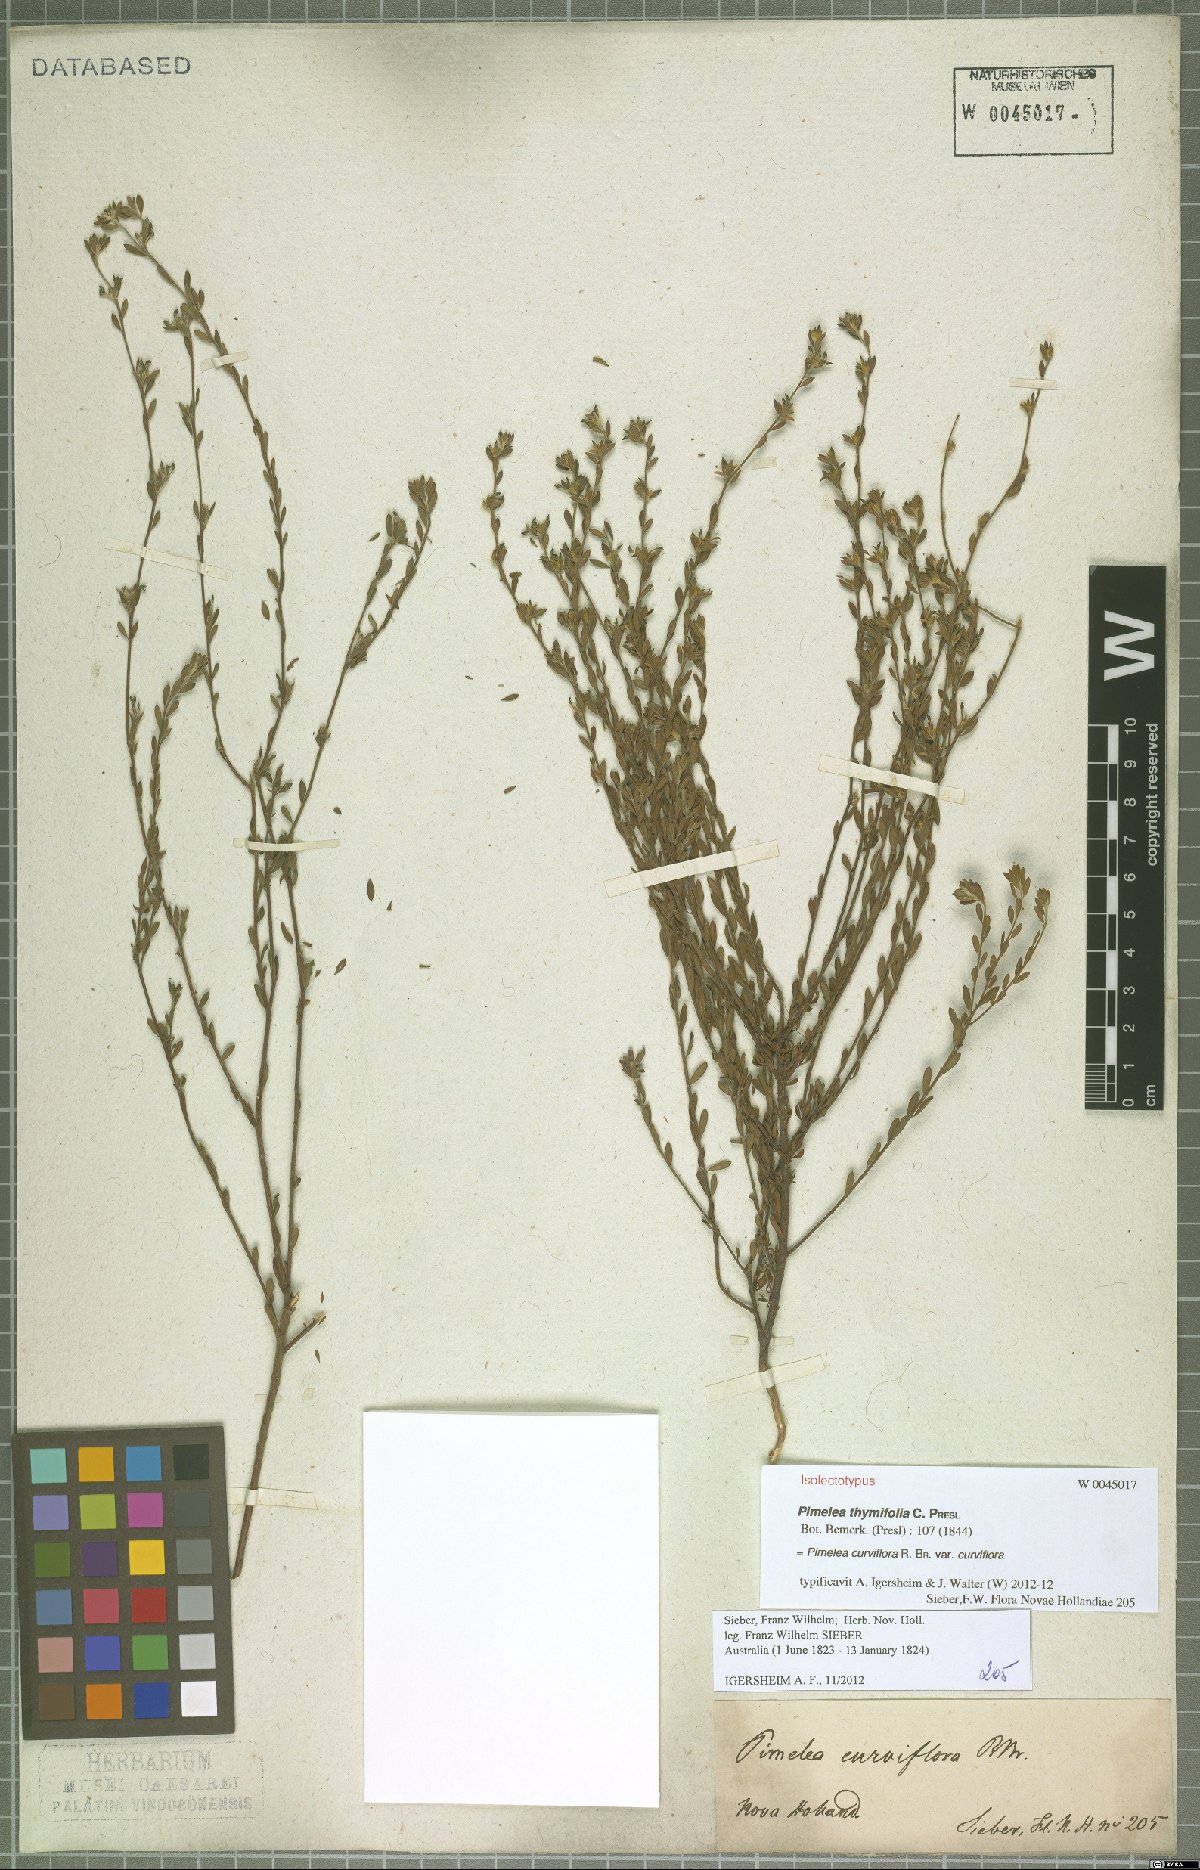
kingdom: Plantae
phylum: Tracheophyta
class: Magnoliopsida
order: Malvales
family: Thymelaeaceae
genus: Pimelea
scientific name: Pimelea curviflora
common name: Curved riceflower
